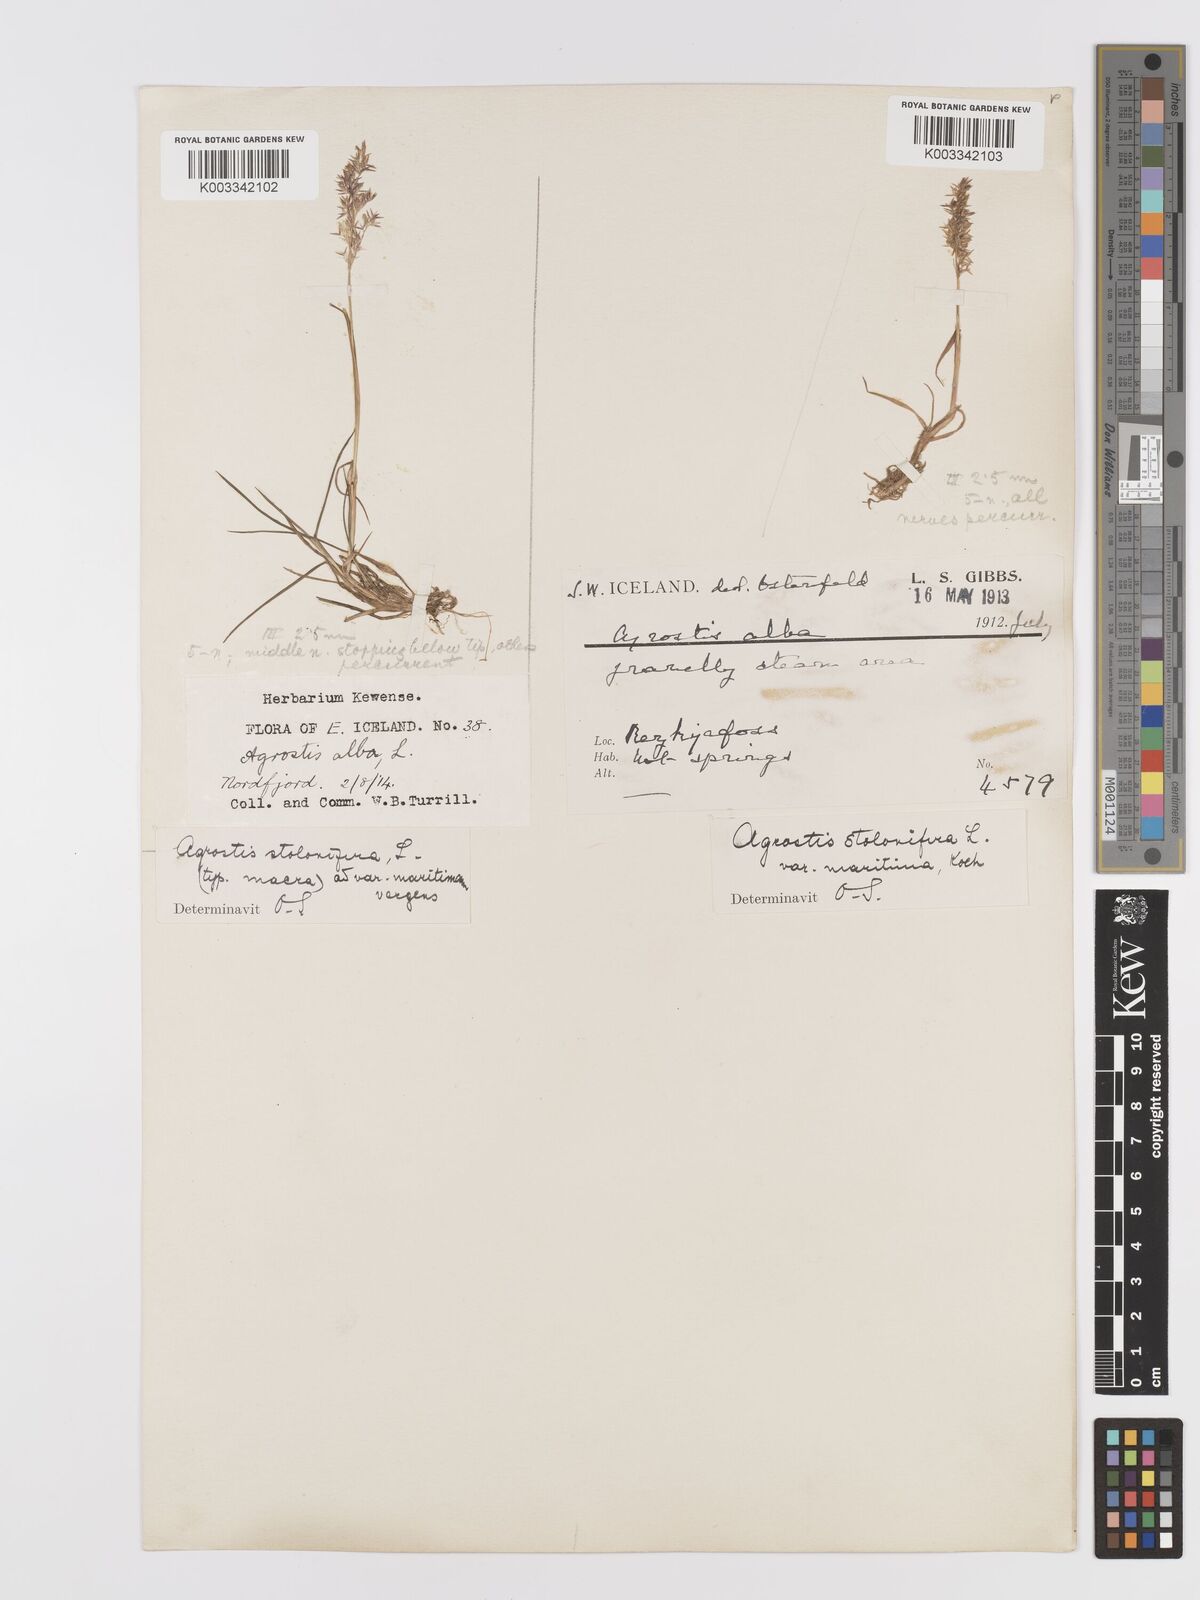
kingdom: Plantae
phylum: Tracheophyta
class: Liliopsida
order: Poales
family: Poaceae
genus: Agrostis
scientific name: Agrostis stolonifera
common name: Creeping bentgrass
